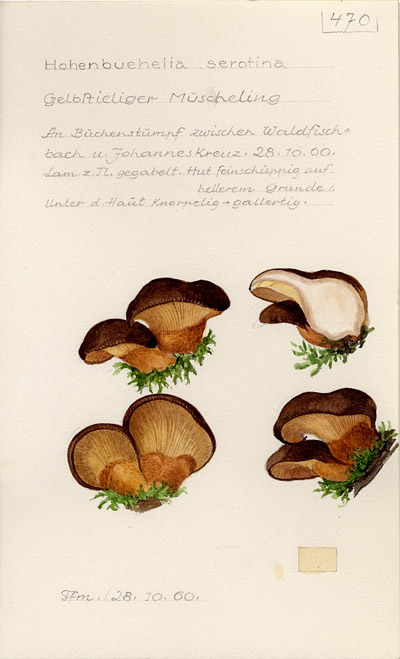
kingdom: Fungi
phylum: Basidiomycota
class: Agaricomycetes
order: Agaricales
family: Sarcomyxaceae
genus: Sarcomyxa
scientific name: Sarcomyxa serotina
